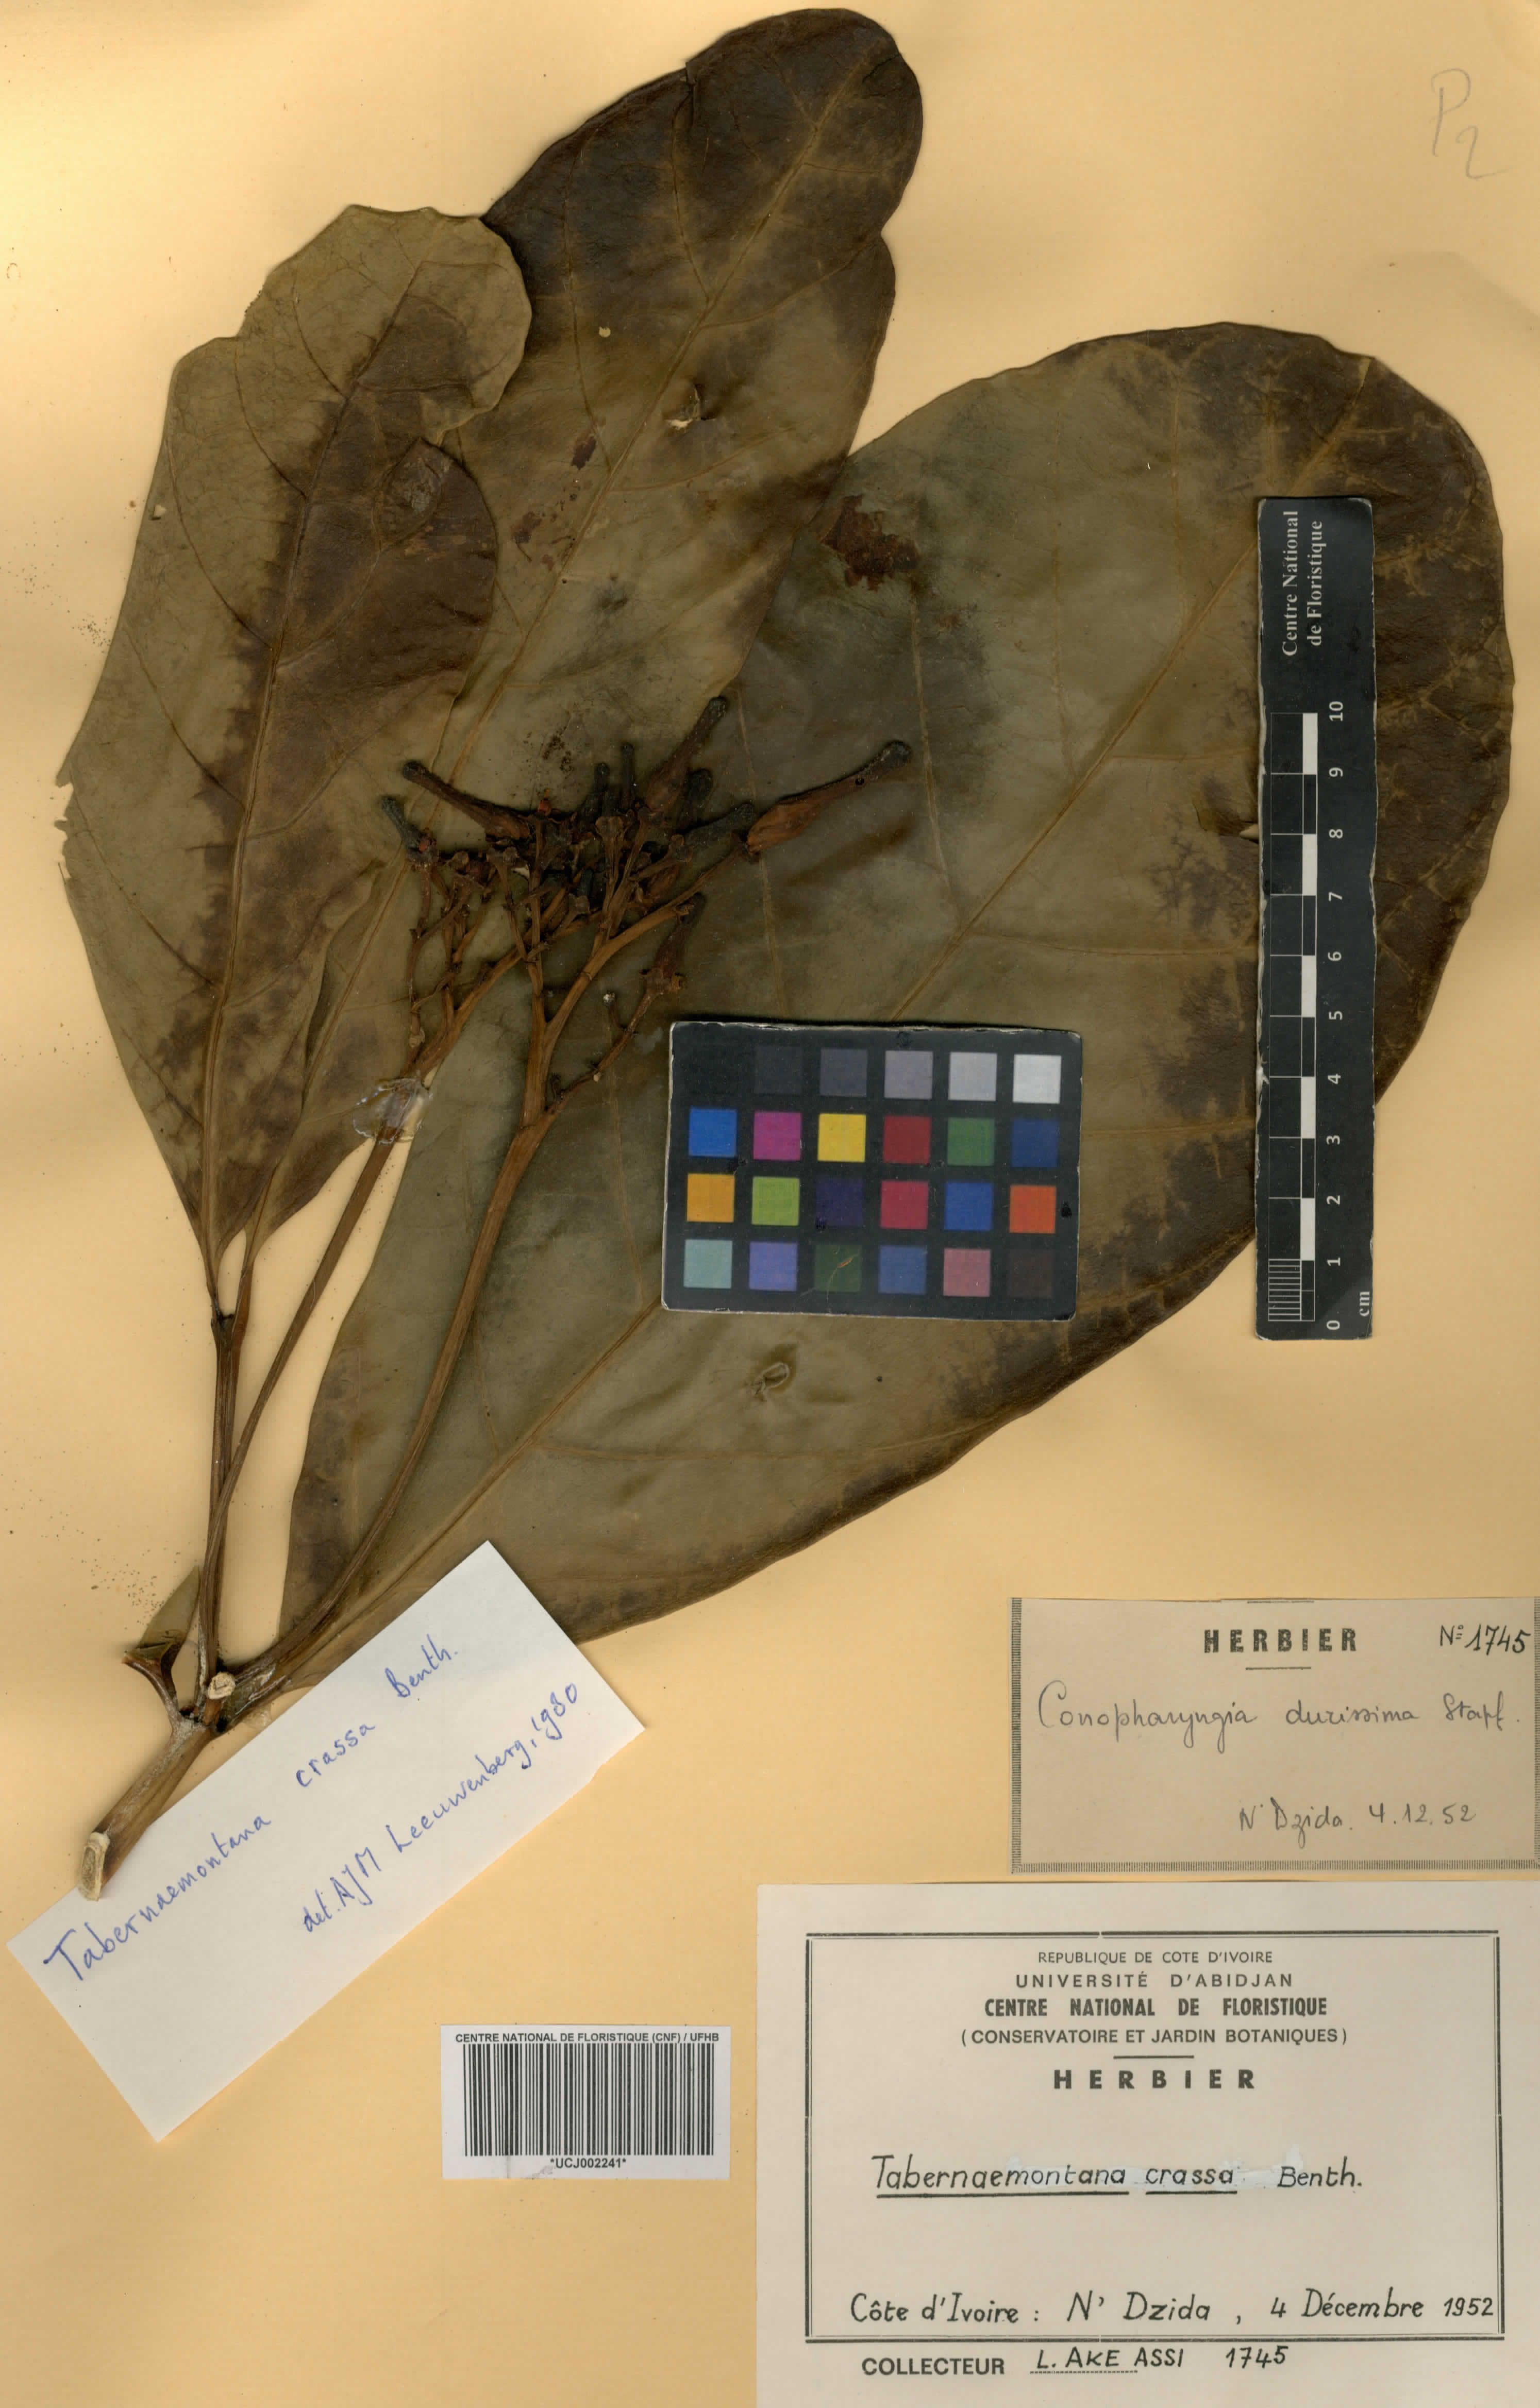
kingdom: Plantae
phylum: Tracheophyta
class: Magnoliopsida
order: Gentianales
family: Apocynaceae
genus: Tabernaemontana
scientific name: Tabernaemontana crassa
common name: Adam's-apple-flower
